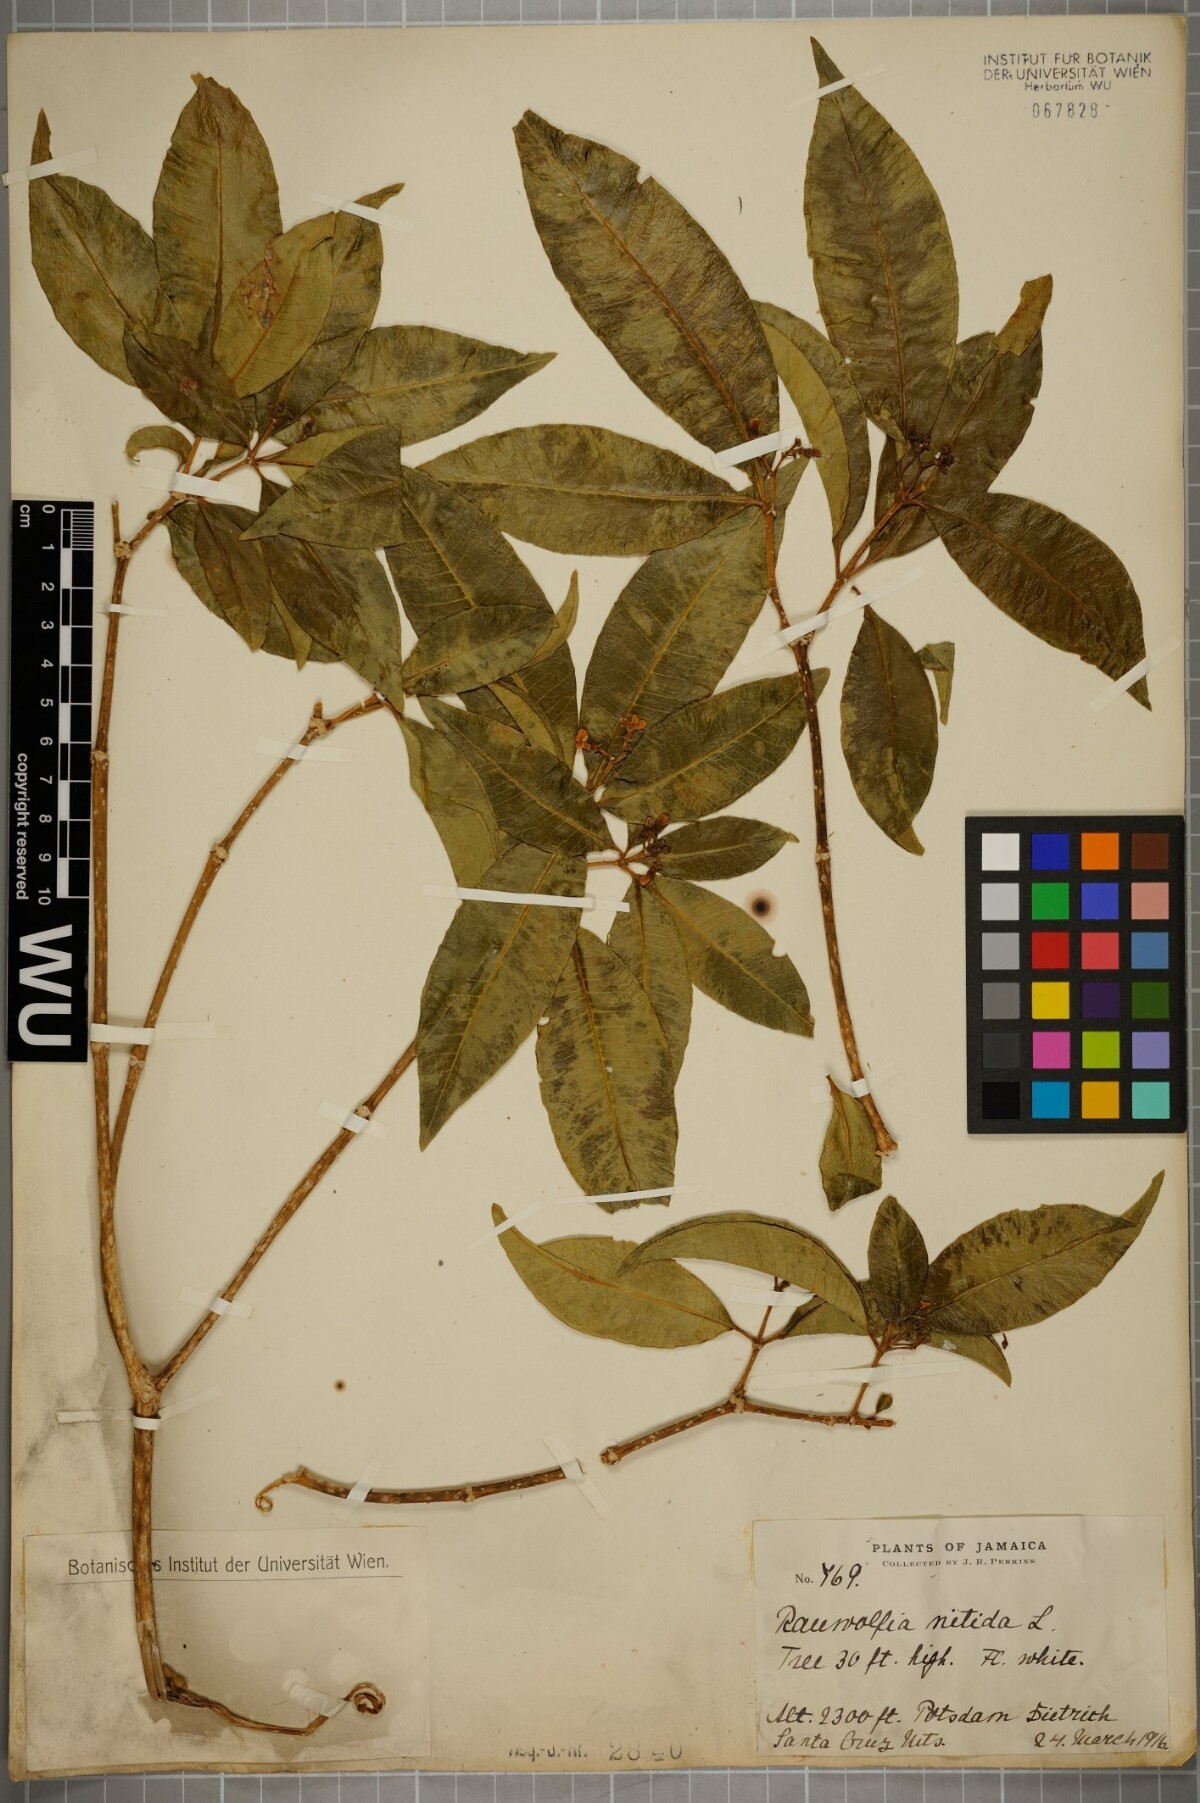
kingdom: Plantae
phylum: Tracheophyta
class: Magnoliopsida
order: Gentianales
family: Apocynaceae
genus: Rauvolfia
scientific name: Rauvolfia nitida
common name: Bitter-ash
